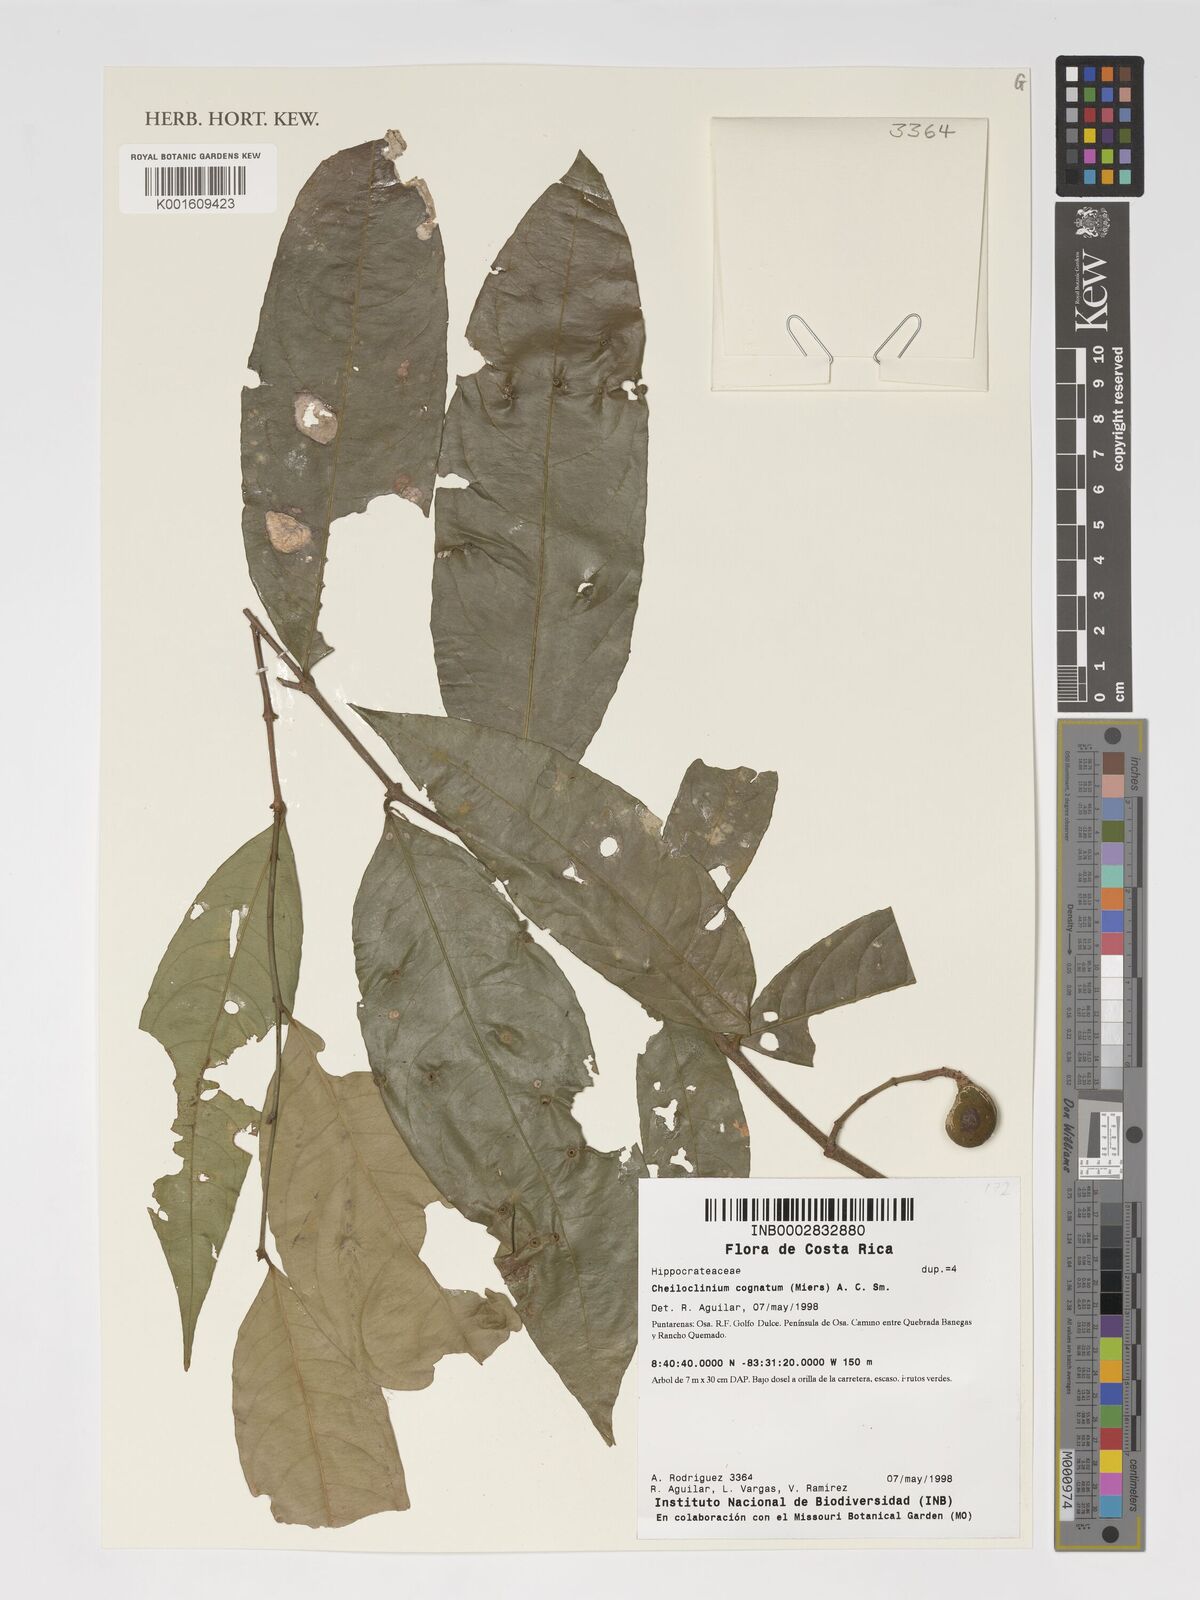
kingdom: Plantae
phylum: Tracheophyta
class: Magnoliopsida
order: Celastrales
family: Celastraceae
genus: Cheiloclinium
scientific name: Cheiloclinium cognatum
